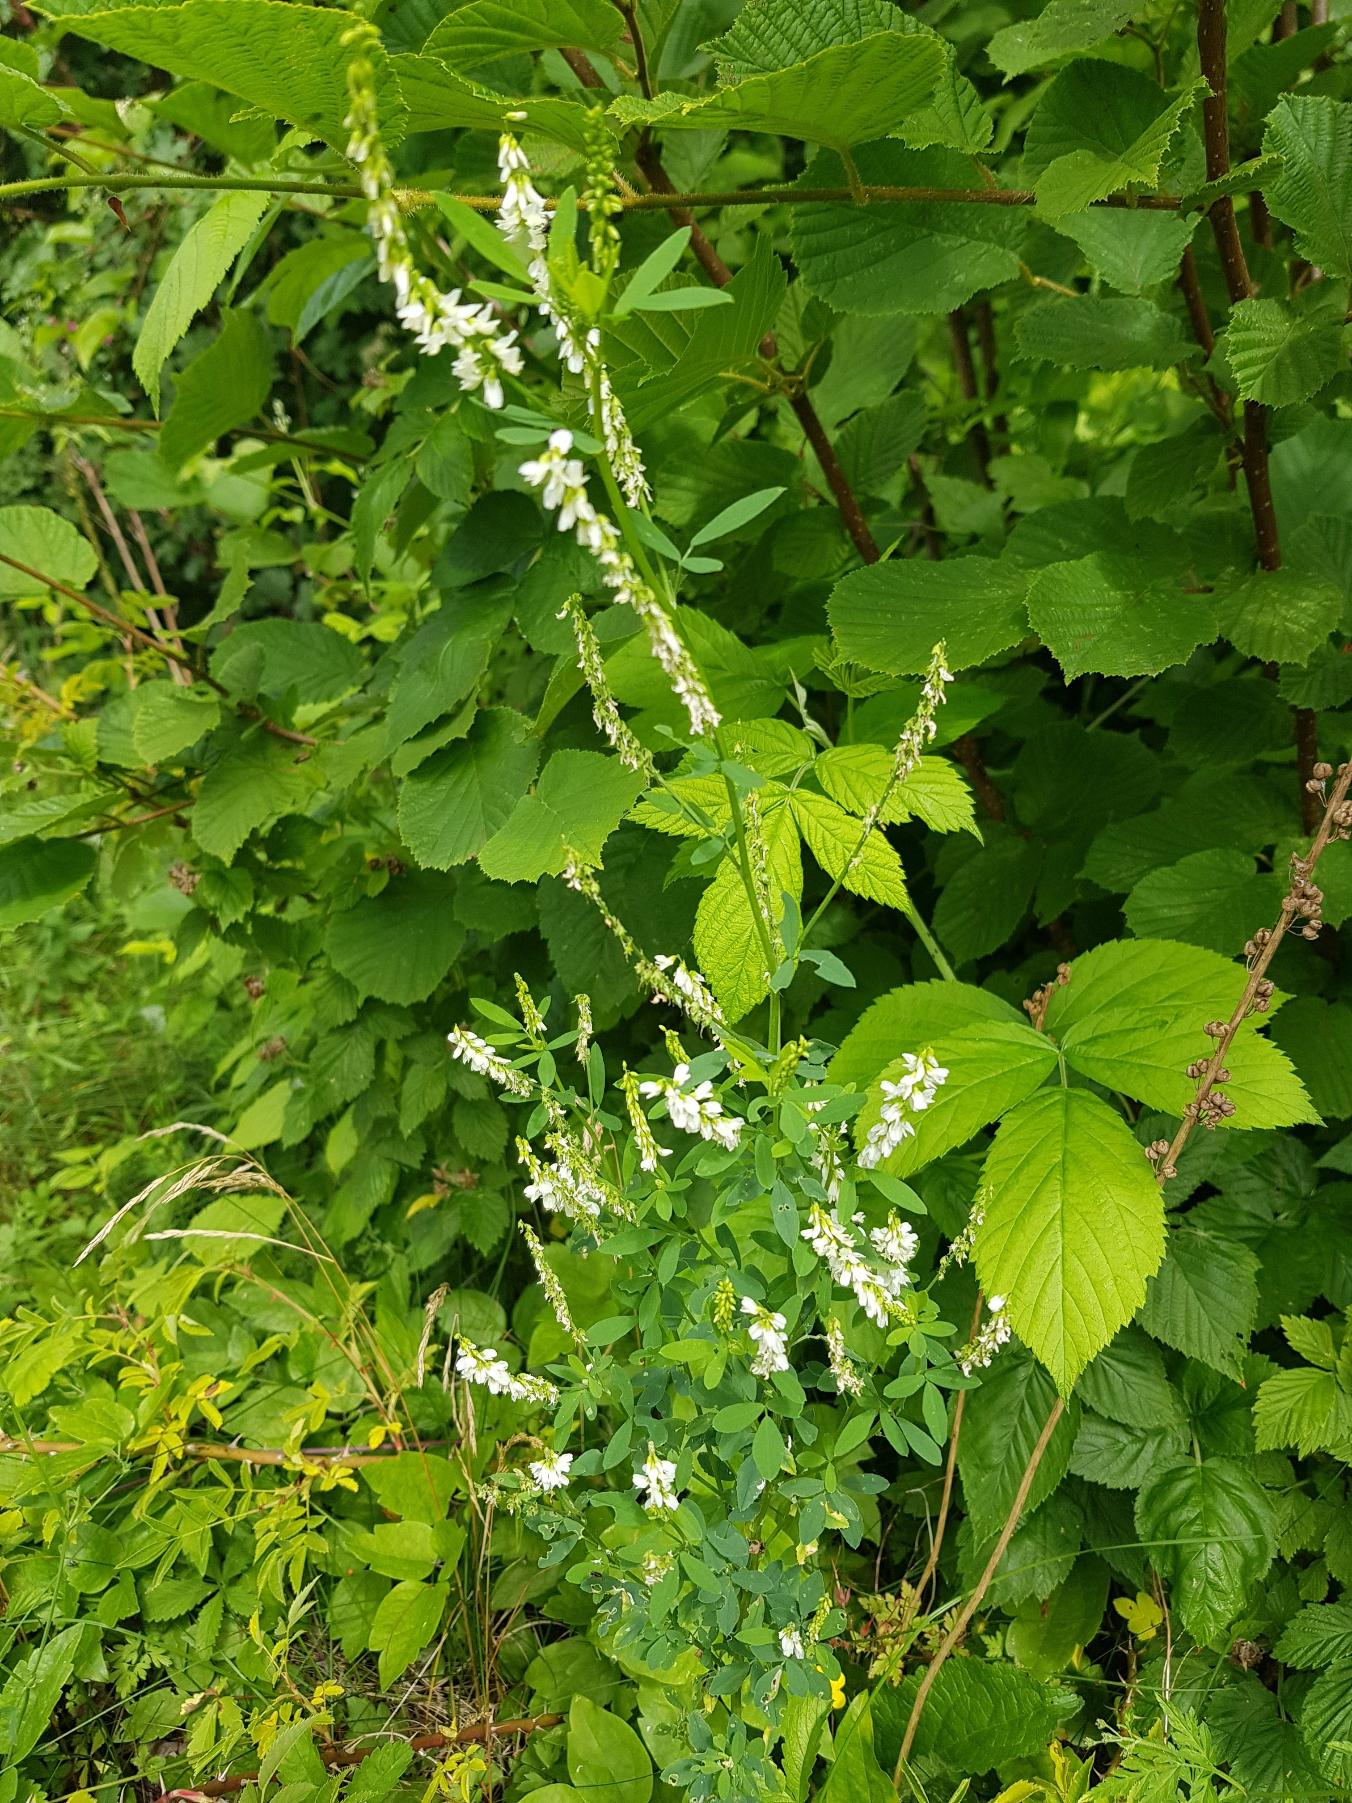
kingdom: Plantae
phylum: Tracheophyta
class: Magnoliopsida
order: Fabales
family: Fabaceae
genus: Melilotus
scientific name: Melilotus albus
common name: Hvid stenkløver
